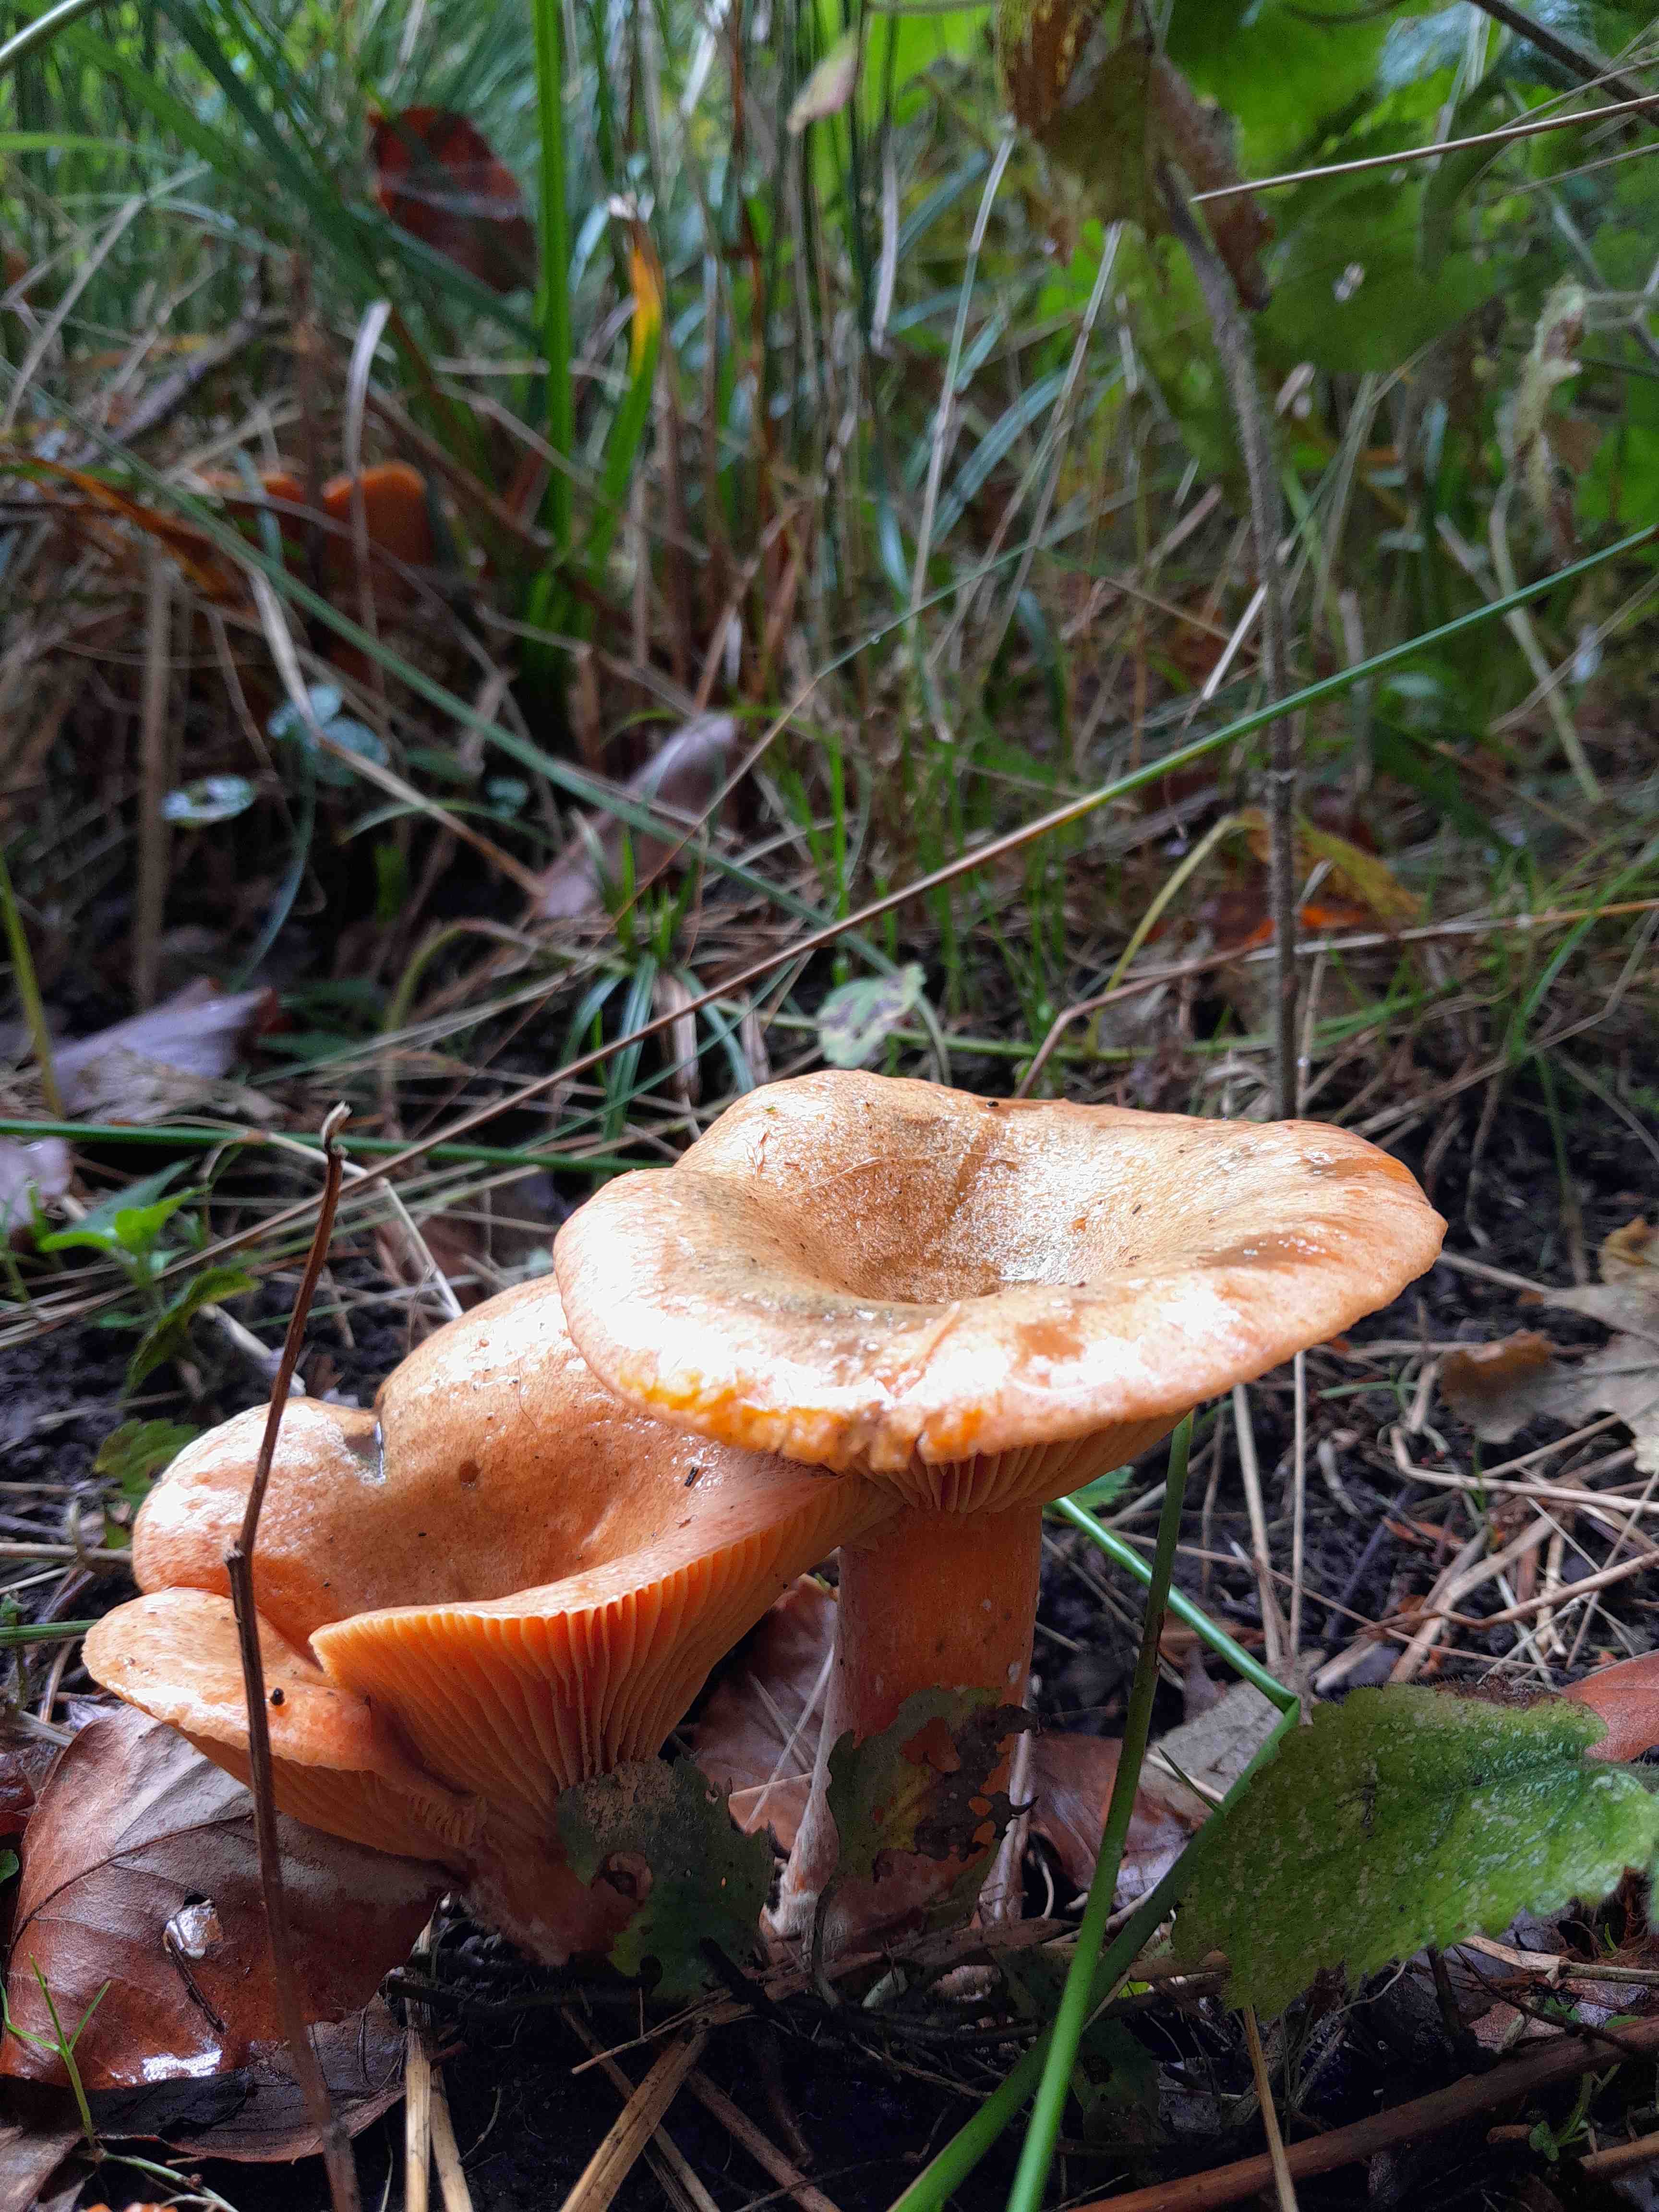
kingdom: Fungi
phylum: Basidiomycota
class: Agaricomycetes
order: Russulales
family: Russulaceae
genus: Lactarius
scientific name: Lactarius deterrimus
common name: gran-mælkehat
